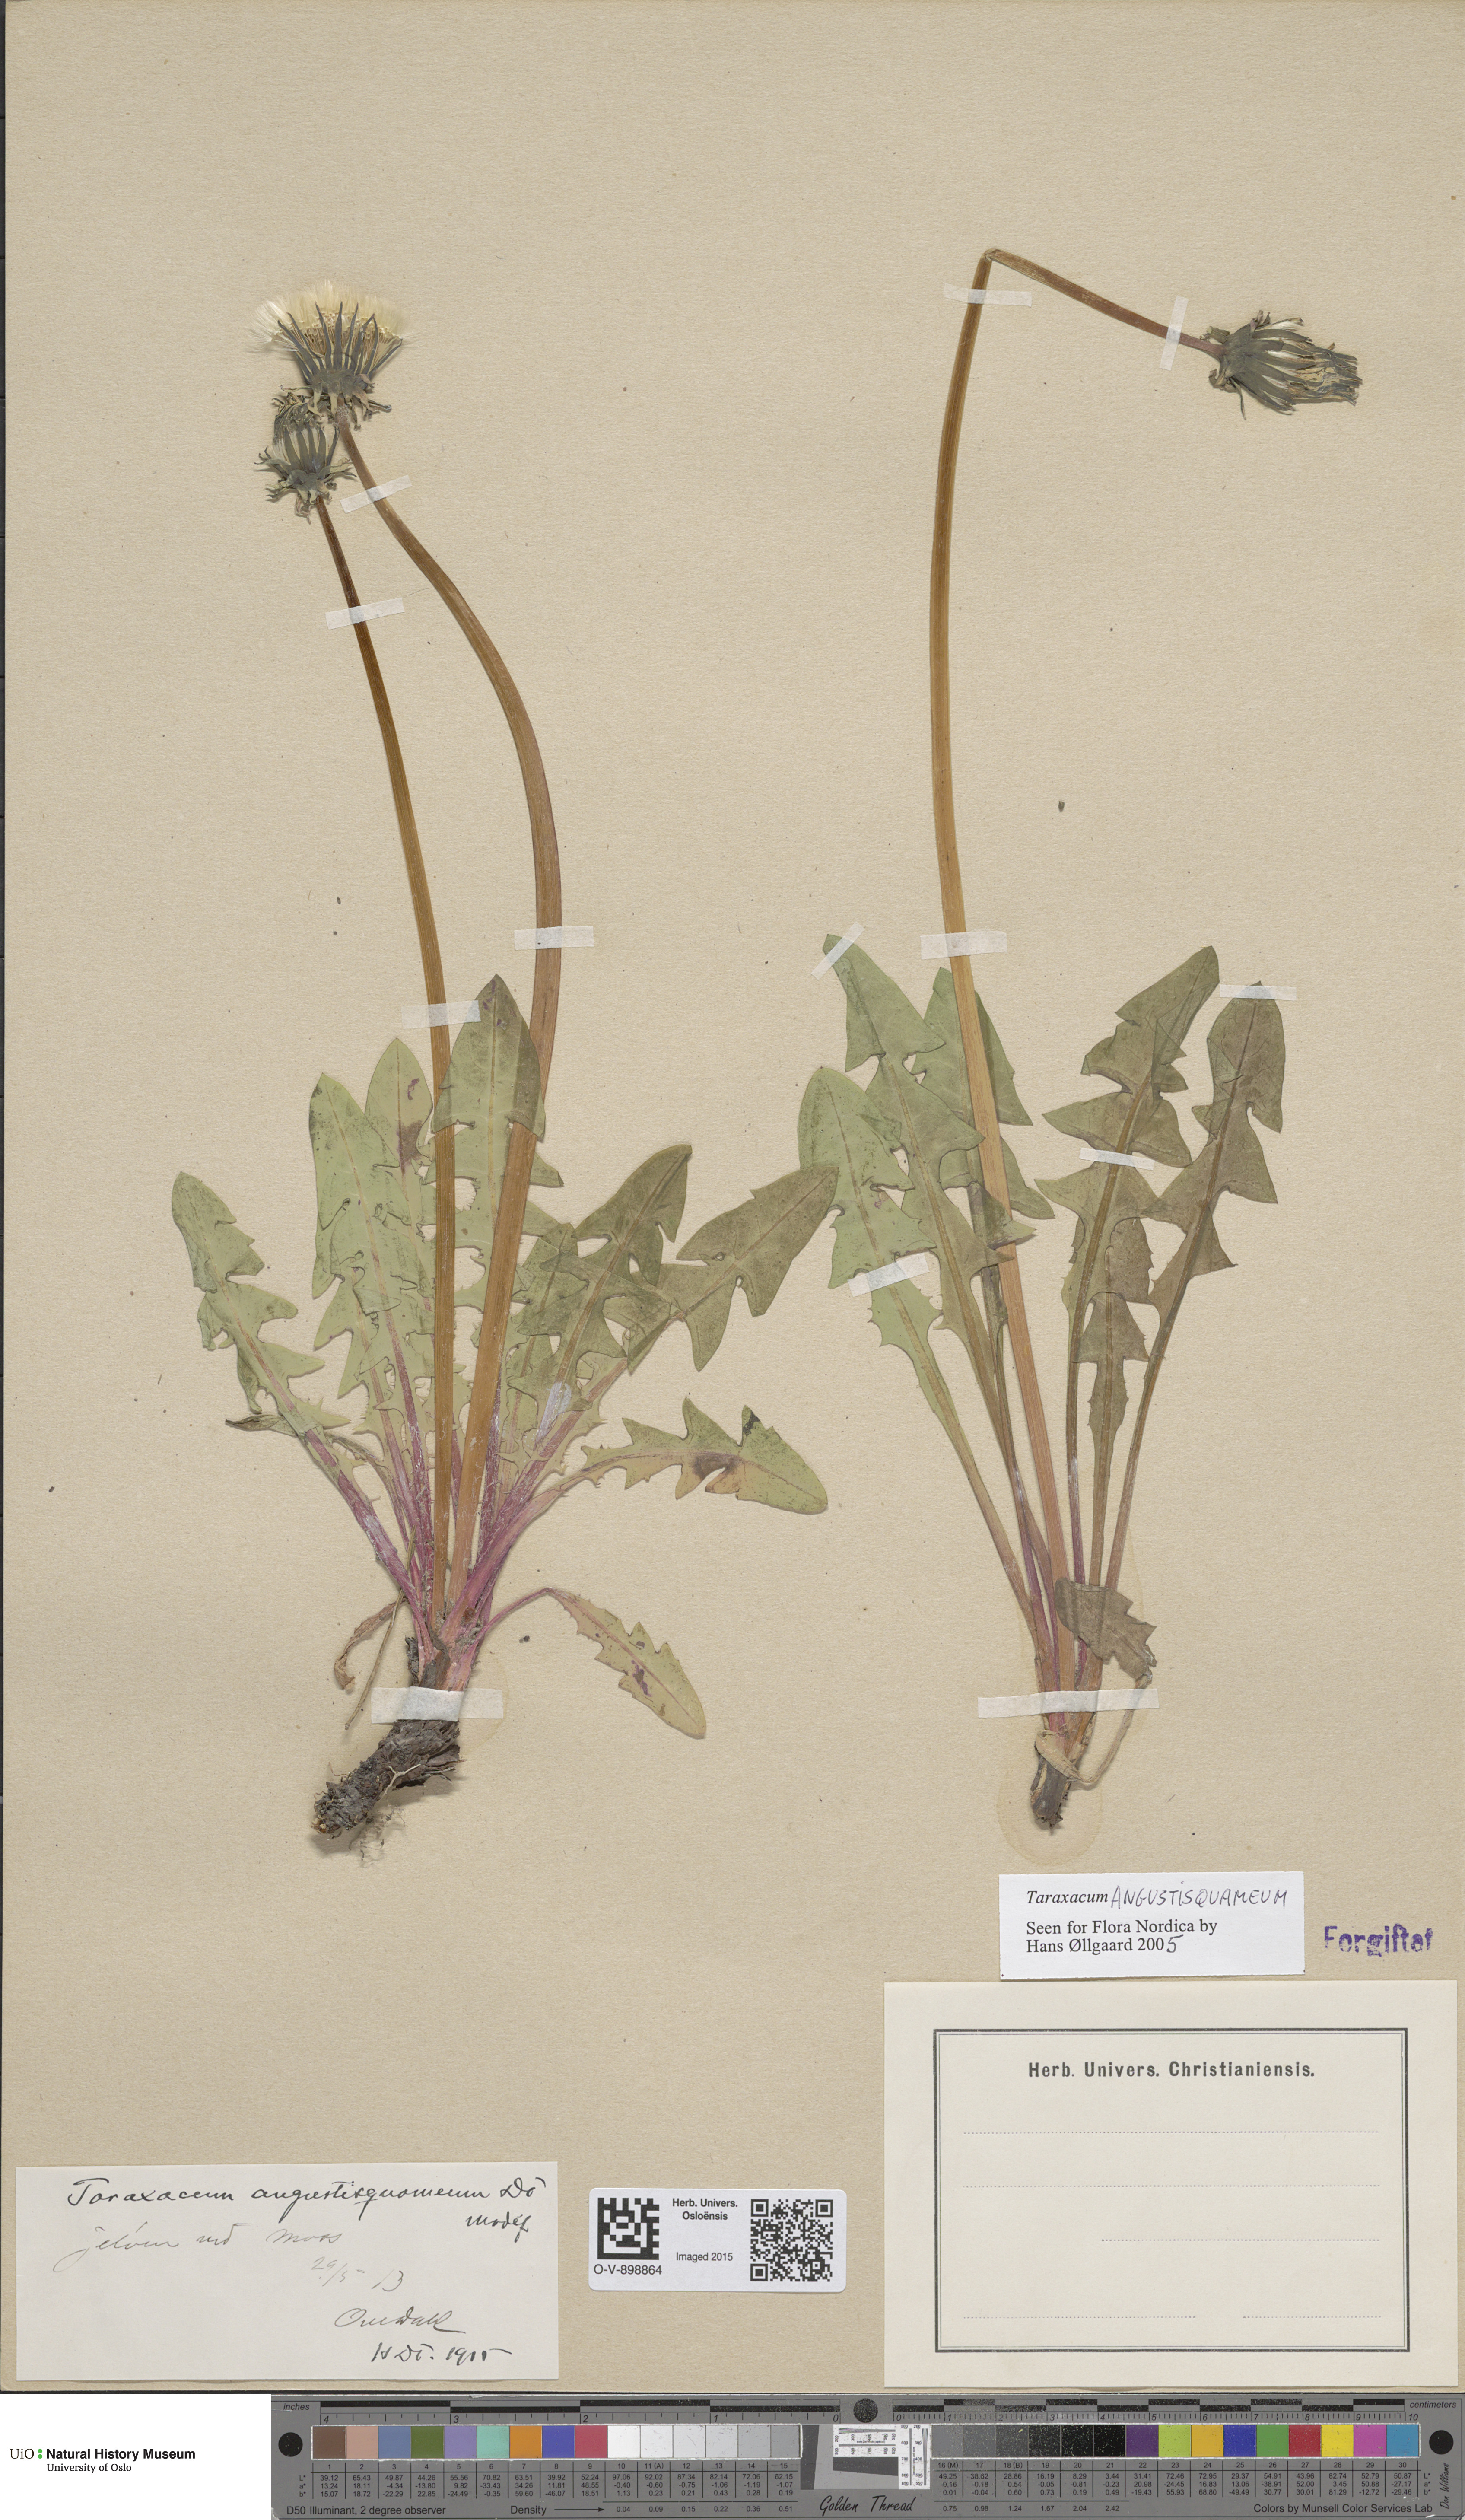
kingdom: Plantae
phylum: Tracheophyta
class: Magnoliopsida
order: Asterales
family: Asteraceae
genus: Taraxacum
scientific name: Taraxacum angustisquameum
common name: Multilobed dandelion
